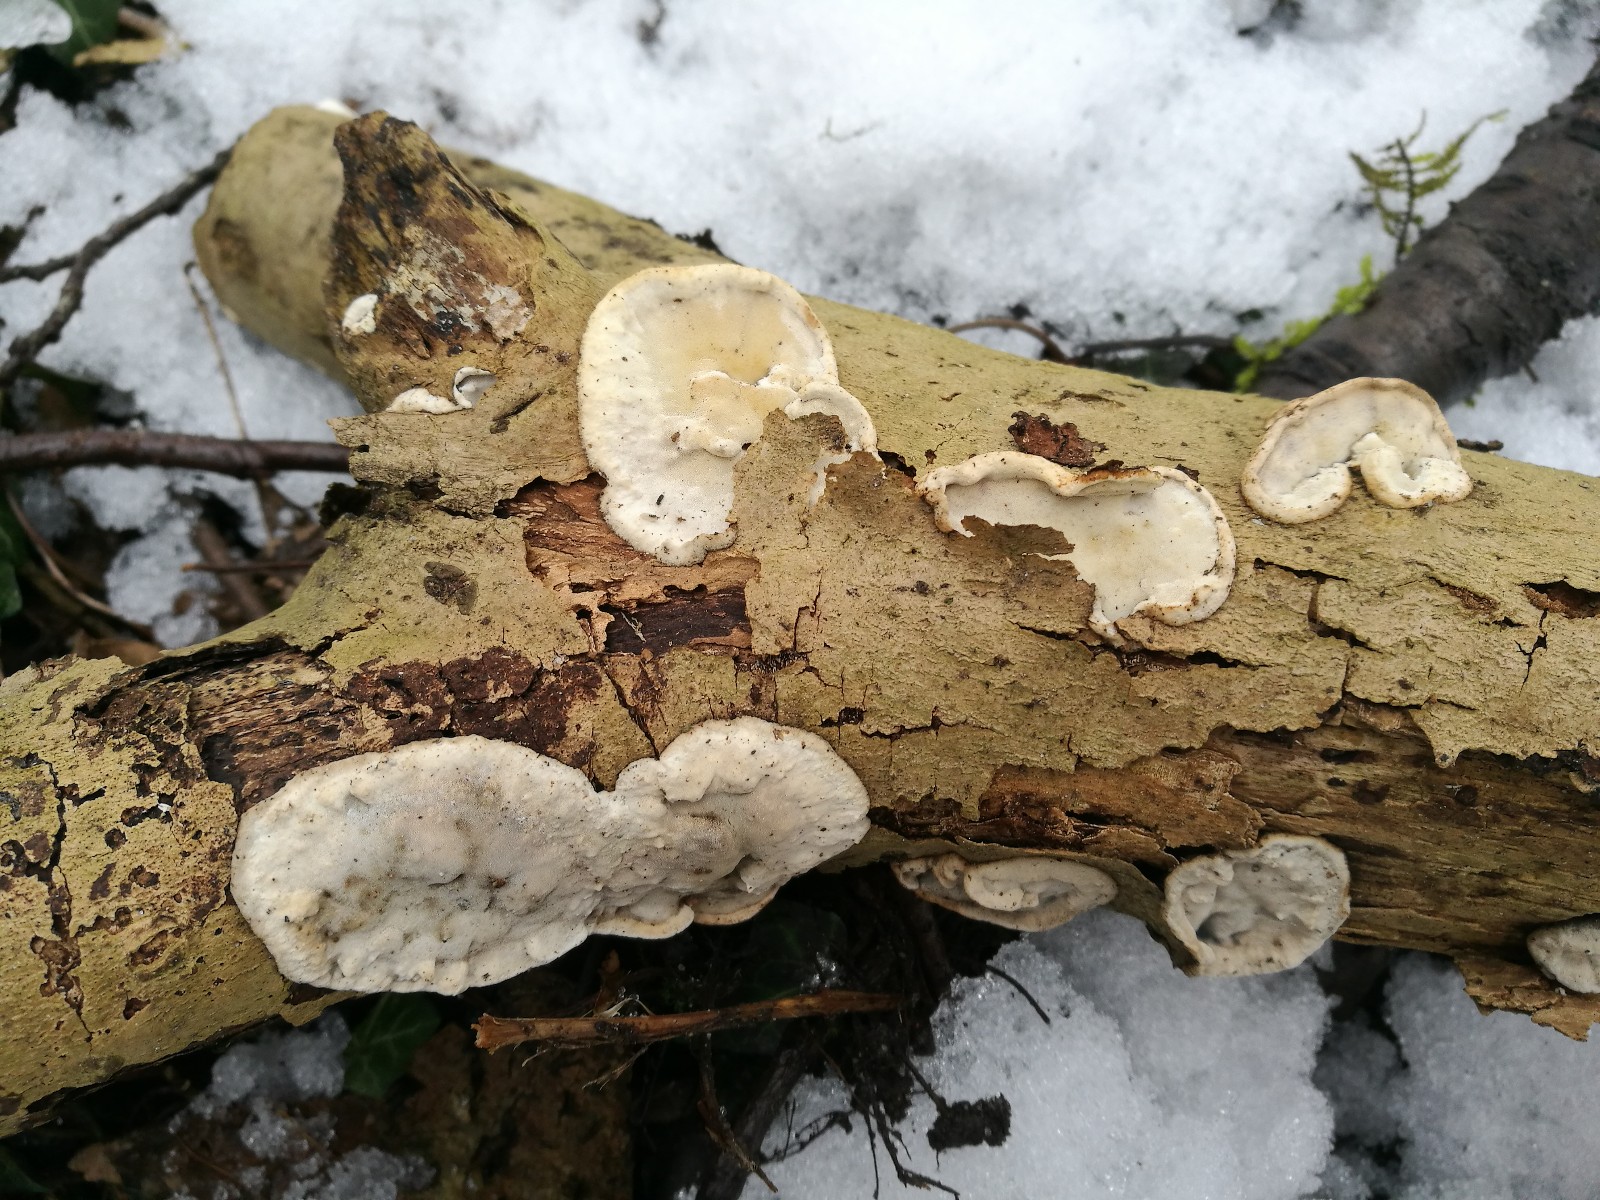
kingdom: Fungi
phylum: Basidiomycota
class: Agaricomycetes
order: Polyporales
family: Incrustoporiaceae
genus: Skeletocutis
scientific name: Skeletocutis nemoralis
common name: stor krystalporesvamp
